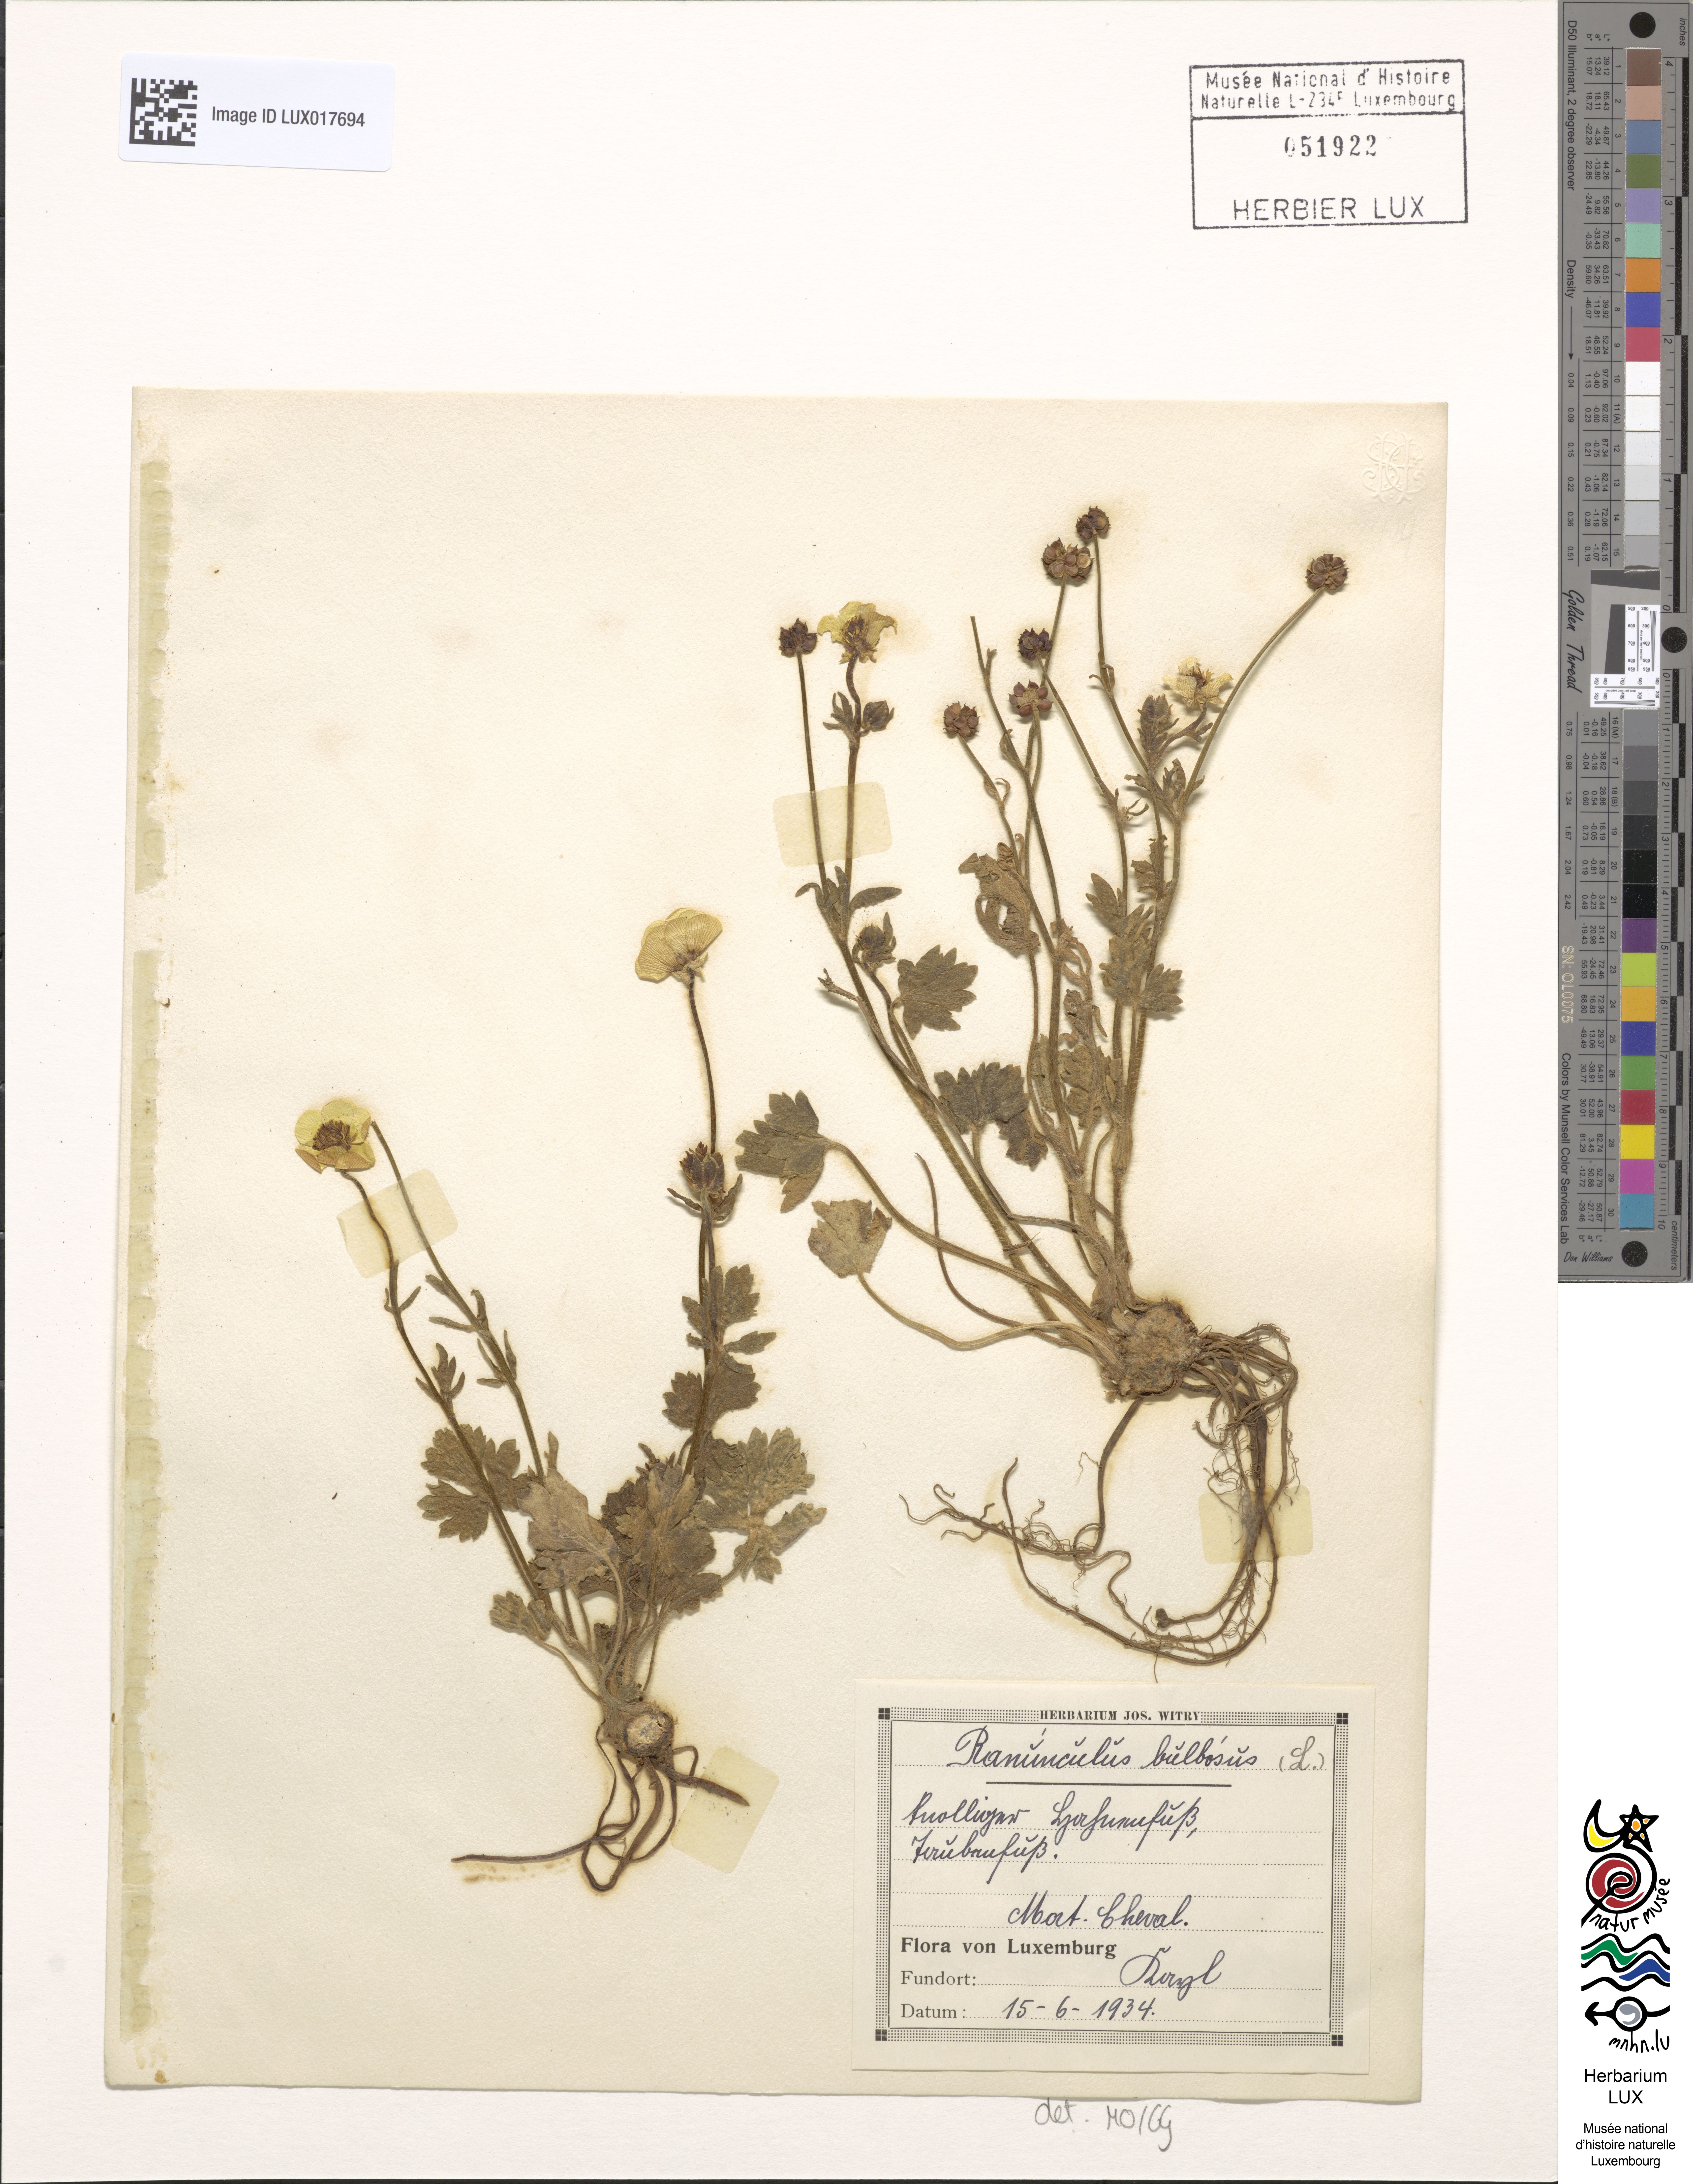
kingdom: Plantae
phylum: Tracheophyta
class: Magnoliopsida
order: Ranunculales
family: Ranunculaceae
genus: Ranunculus
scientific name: Ranunculus bulbosus
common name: Bulbous buttercup
